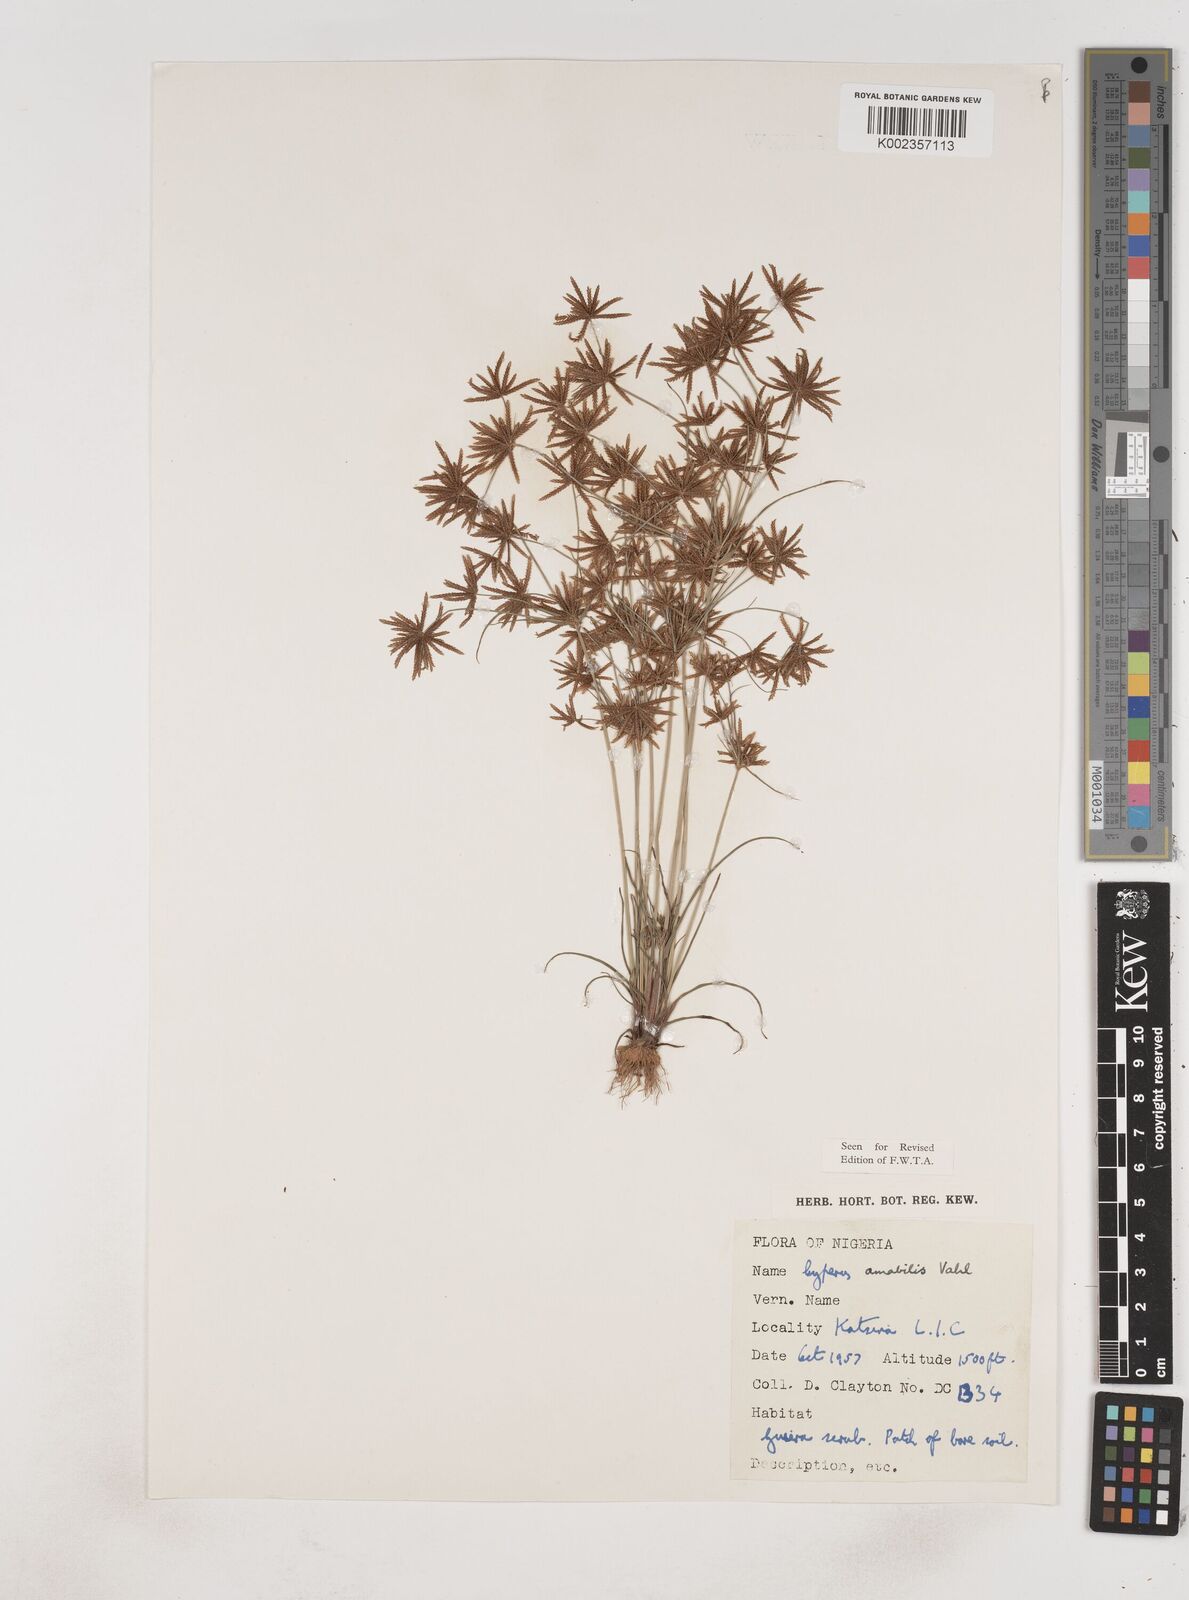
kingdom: Plantae
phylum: Tracheophyta
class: Liliopsida
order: Poales
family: Cyperaceae
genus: Cyperus
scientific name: Cyperus amabilis
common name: Foothill flat sedge
